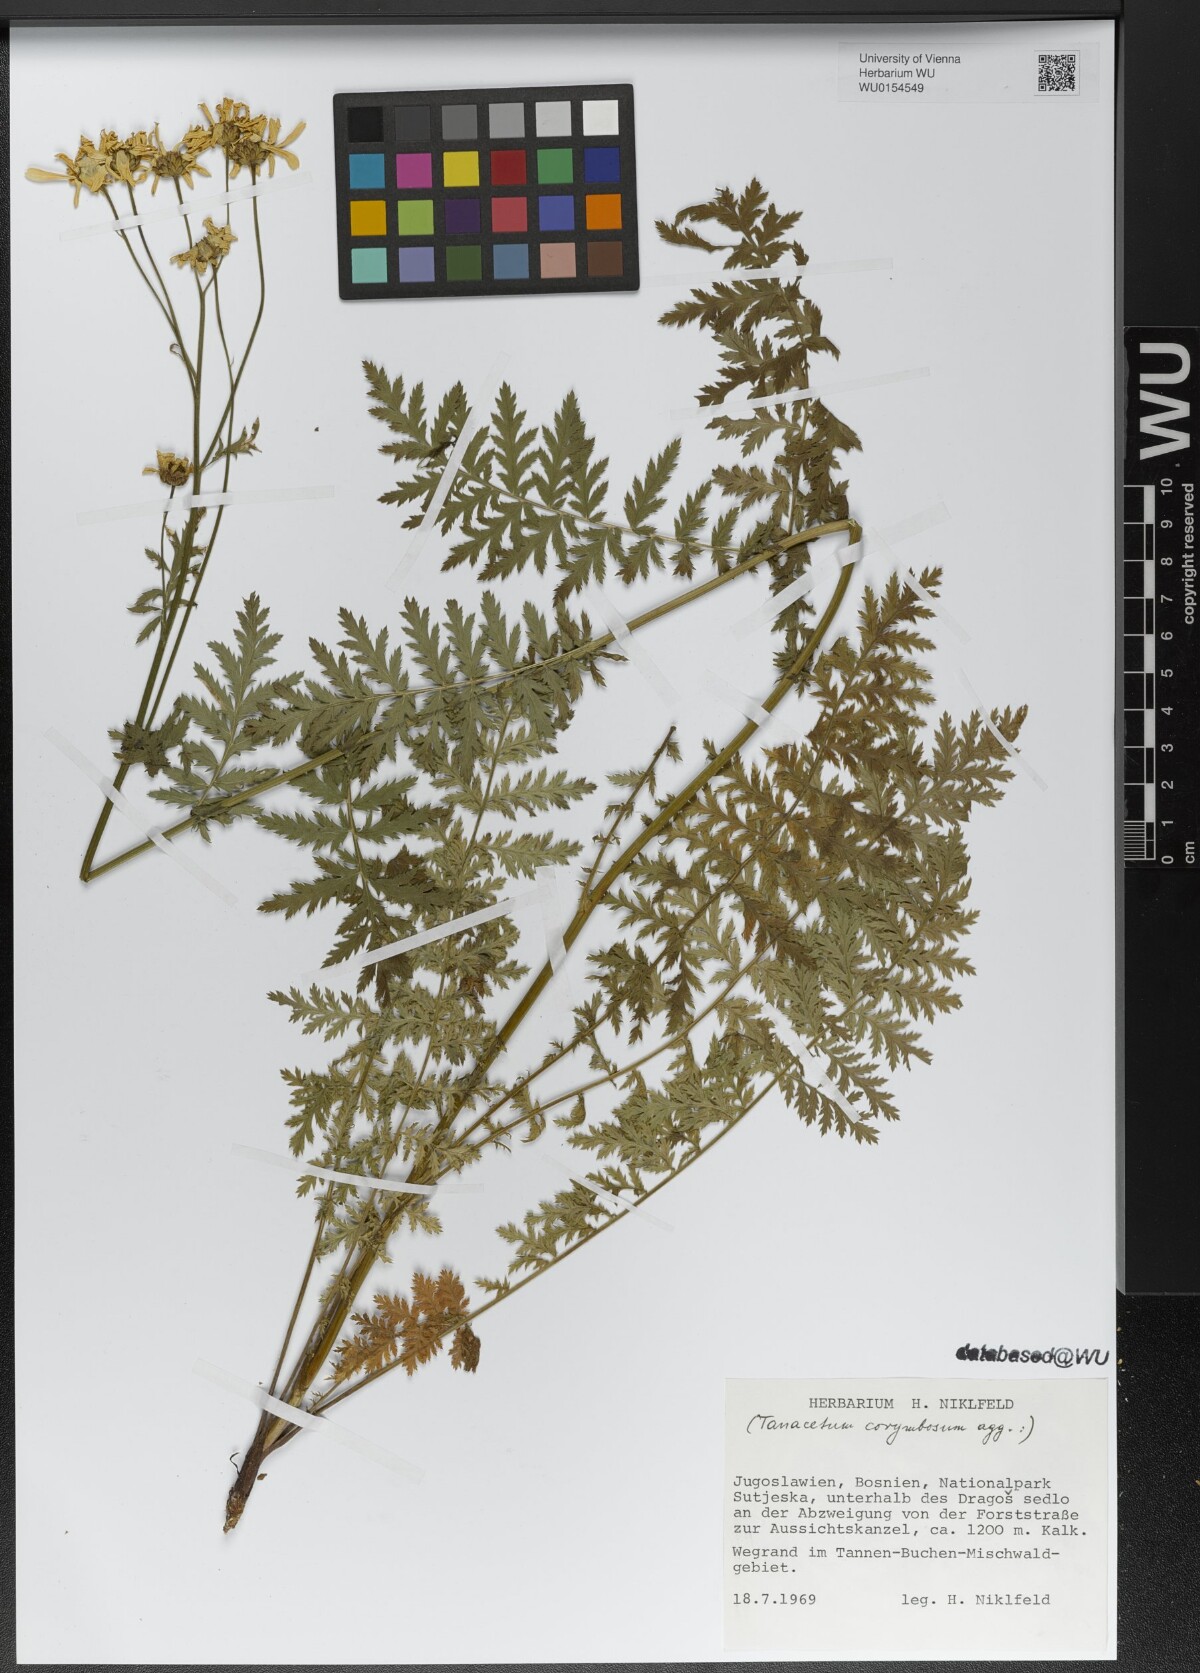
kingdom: Plantae
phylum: Tracheophyta
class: Magnoliopsida
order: Asterales
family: Asteraceae
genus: Tanacetum
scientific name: Tanacetum corymbosum
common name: Scentless feverfew
